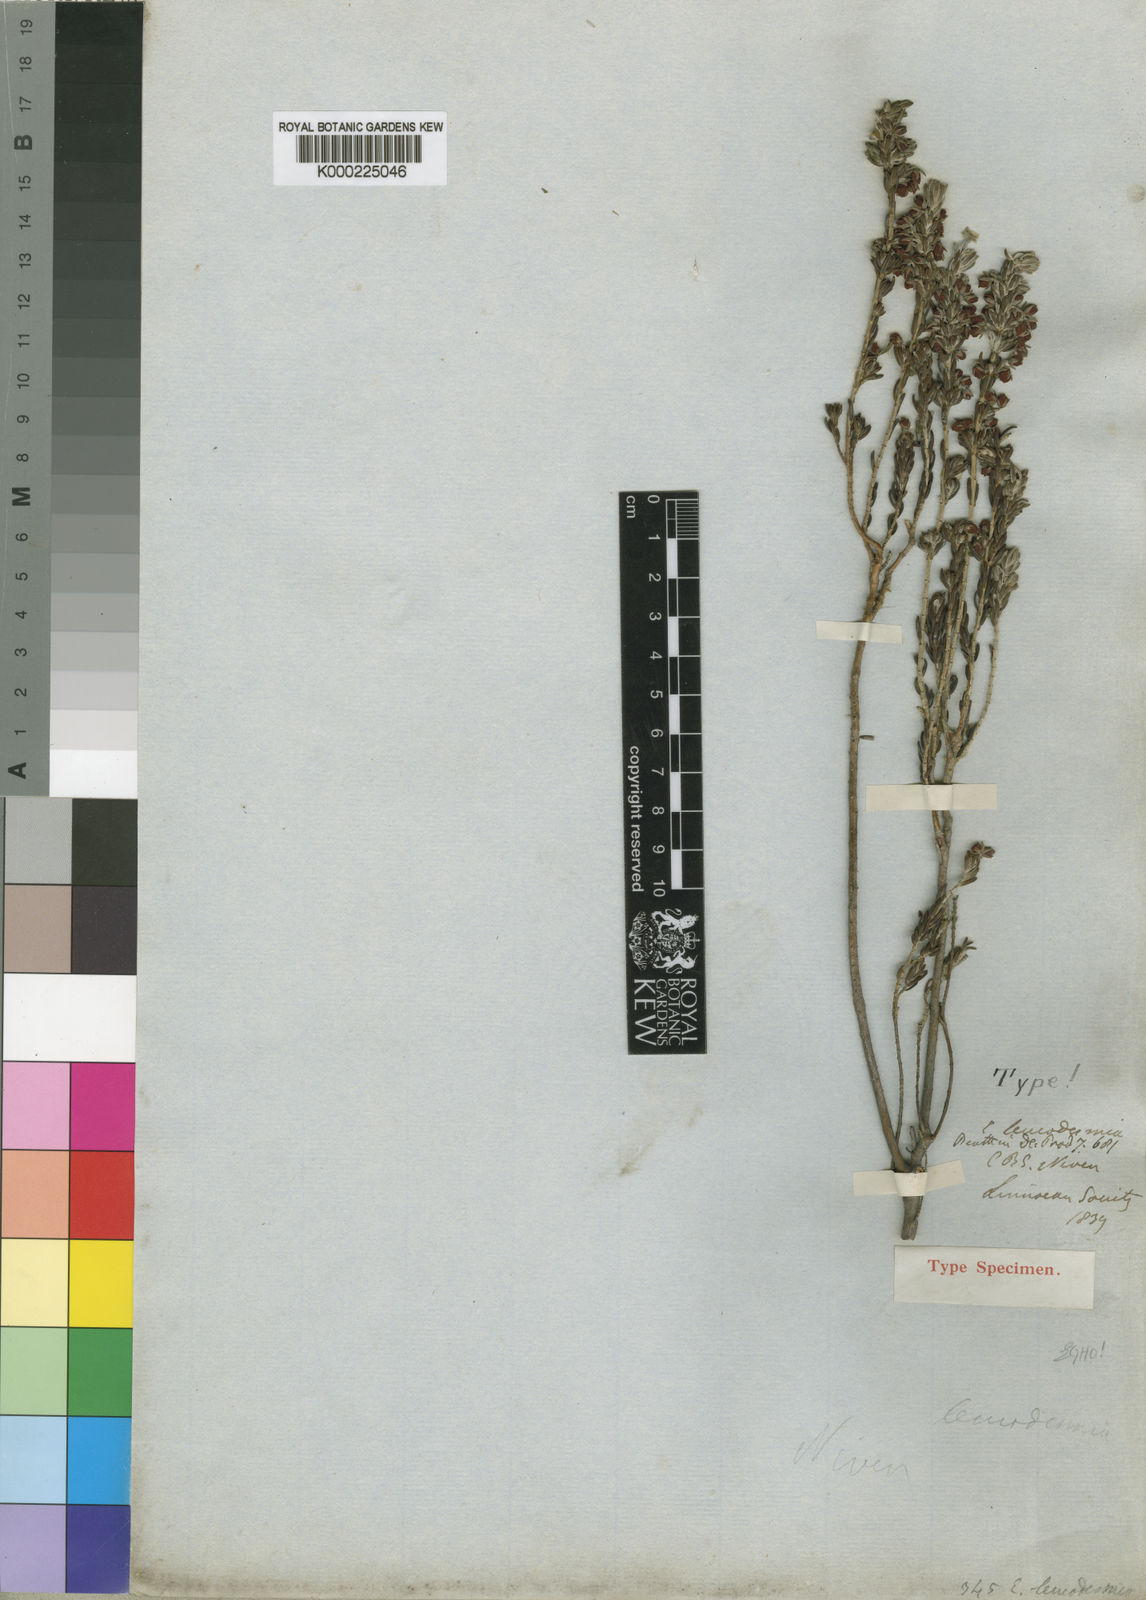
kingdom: Plantae
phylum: Tracheophyta
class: Magnoliopsida
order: Ericales
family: Ericaceae
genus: Erica
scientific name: Erica leucodesmia
